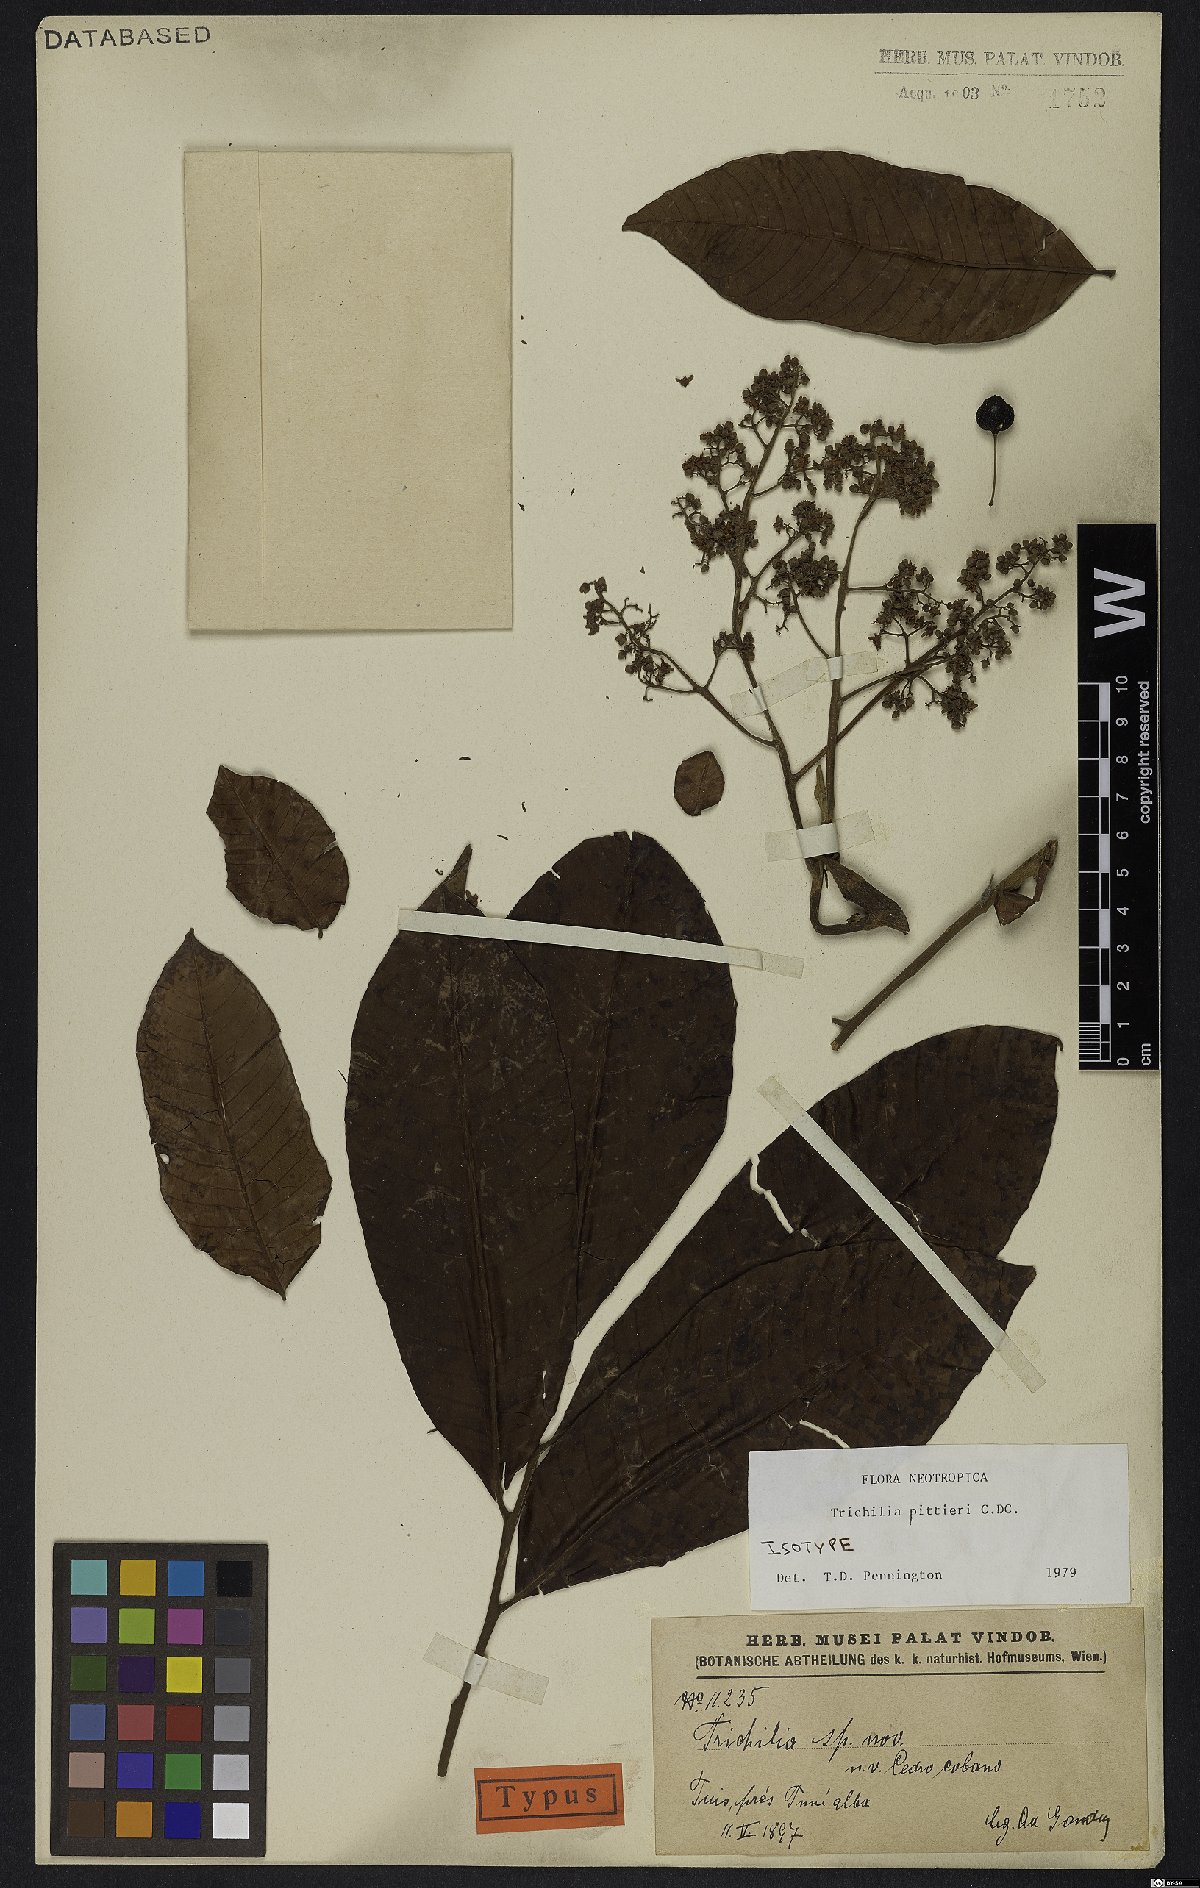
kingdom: Plantae
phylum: Tracheophyta
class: Magnoliopsida
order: Sapindales
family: Meliaceae
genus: Trichilia
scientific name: Trichilia pittieri
